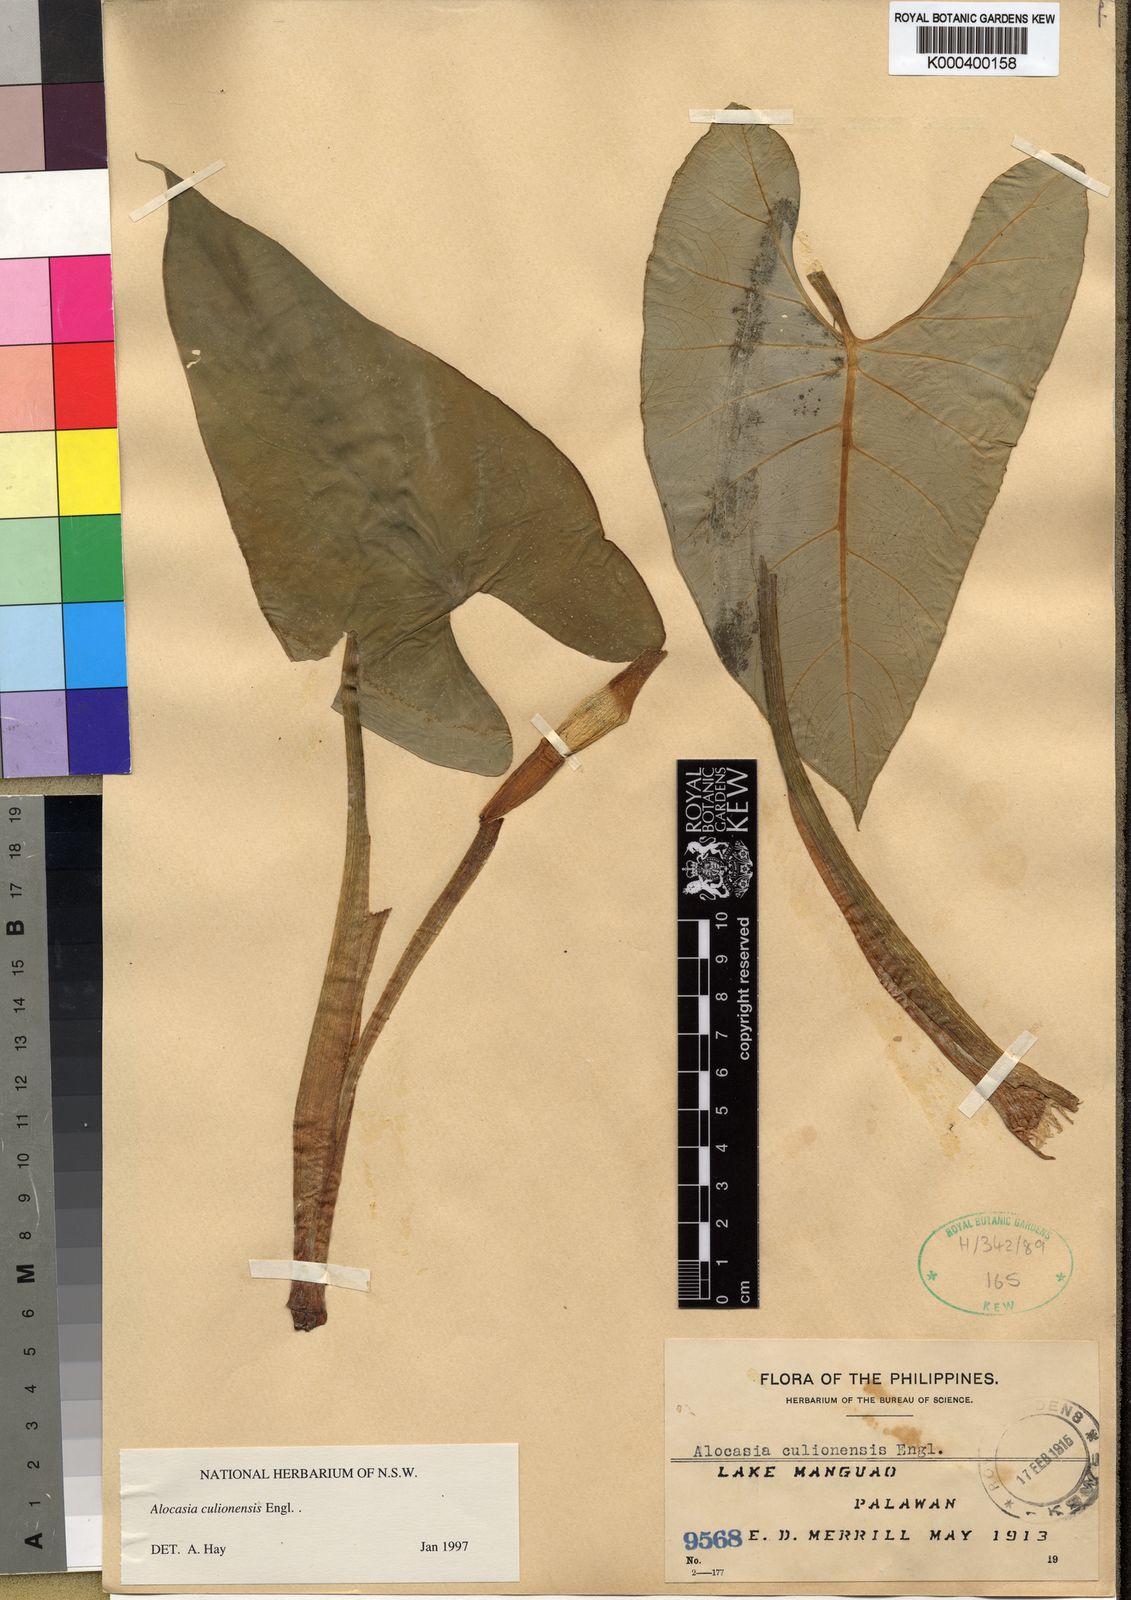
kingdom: Plantae
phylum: Tracheophyta
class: Liliopsida
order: Alismatales
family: Araceae
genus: Alocasia
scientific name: Alocasia culionensis
